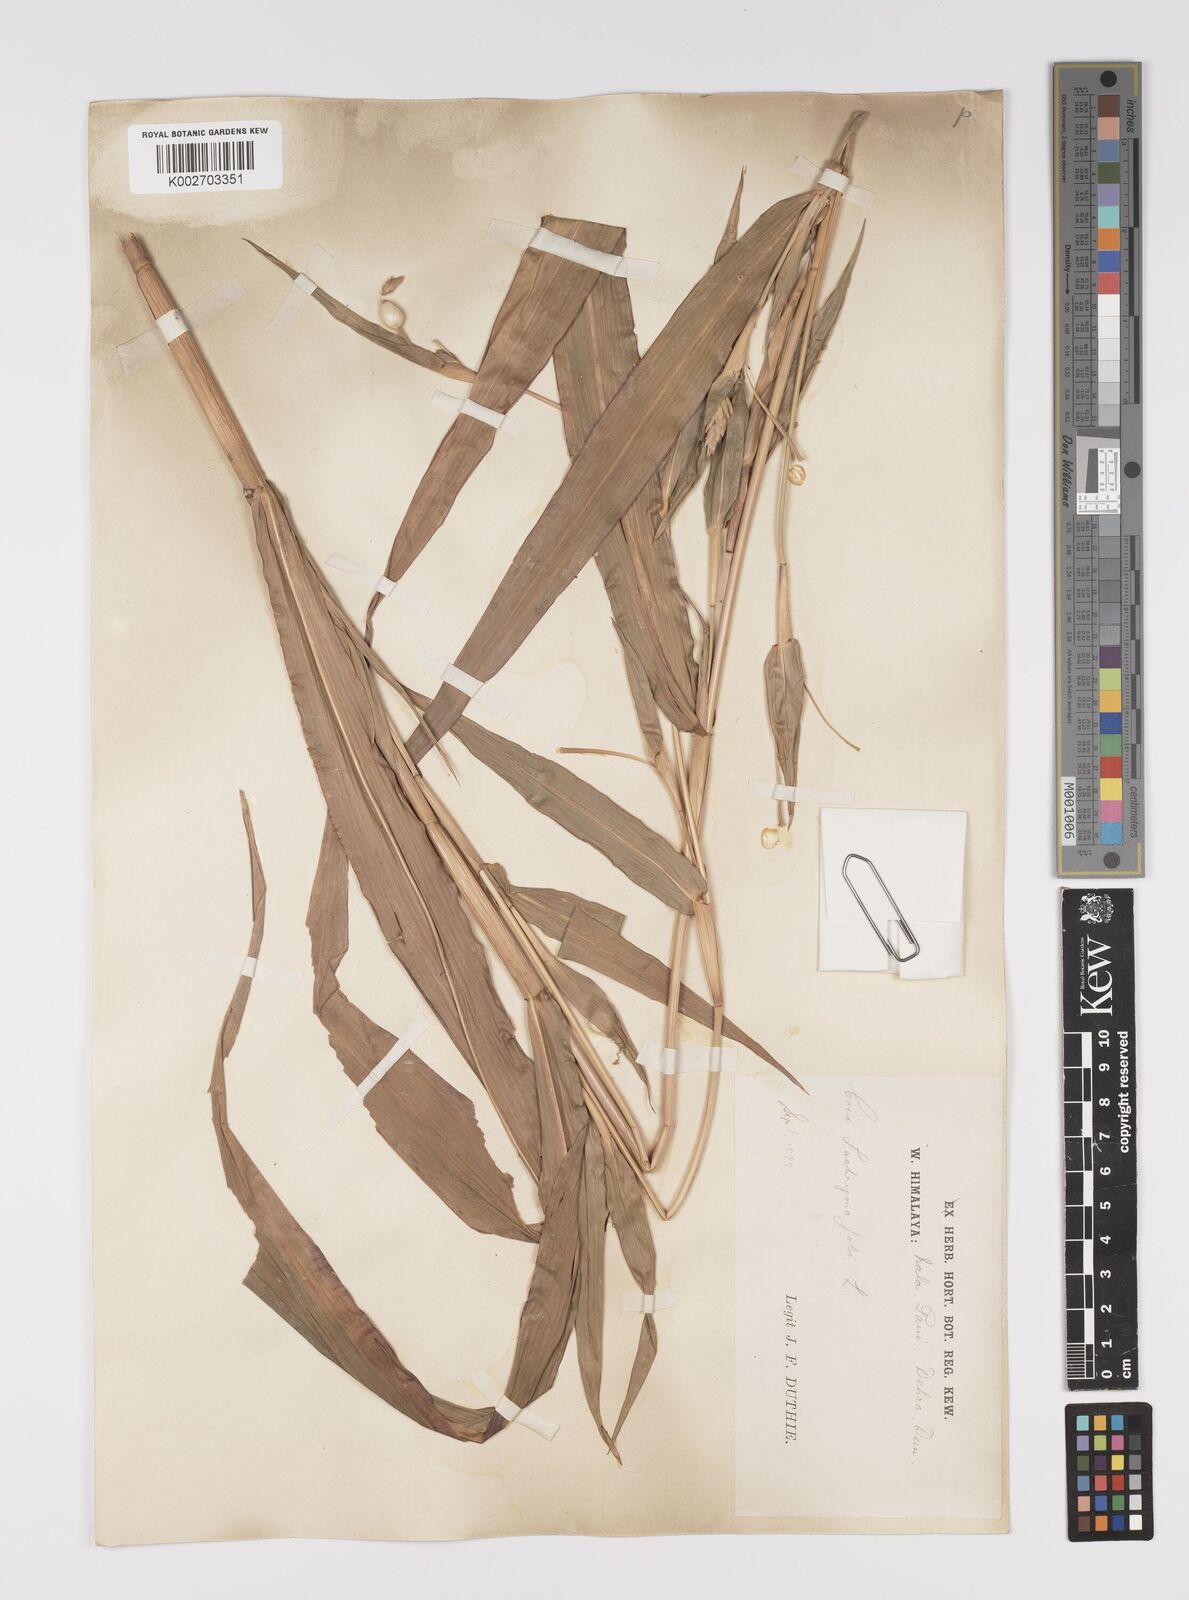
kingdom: Plantae
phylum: Tracheophyta
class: Liliopsida
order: Poales
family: Poaceae
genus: Coix
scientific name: Coix lacryma-jobi
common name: Job's tears
